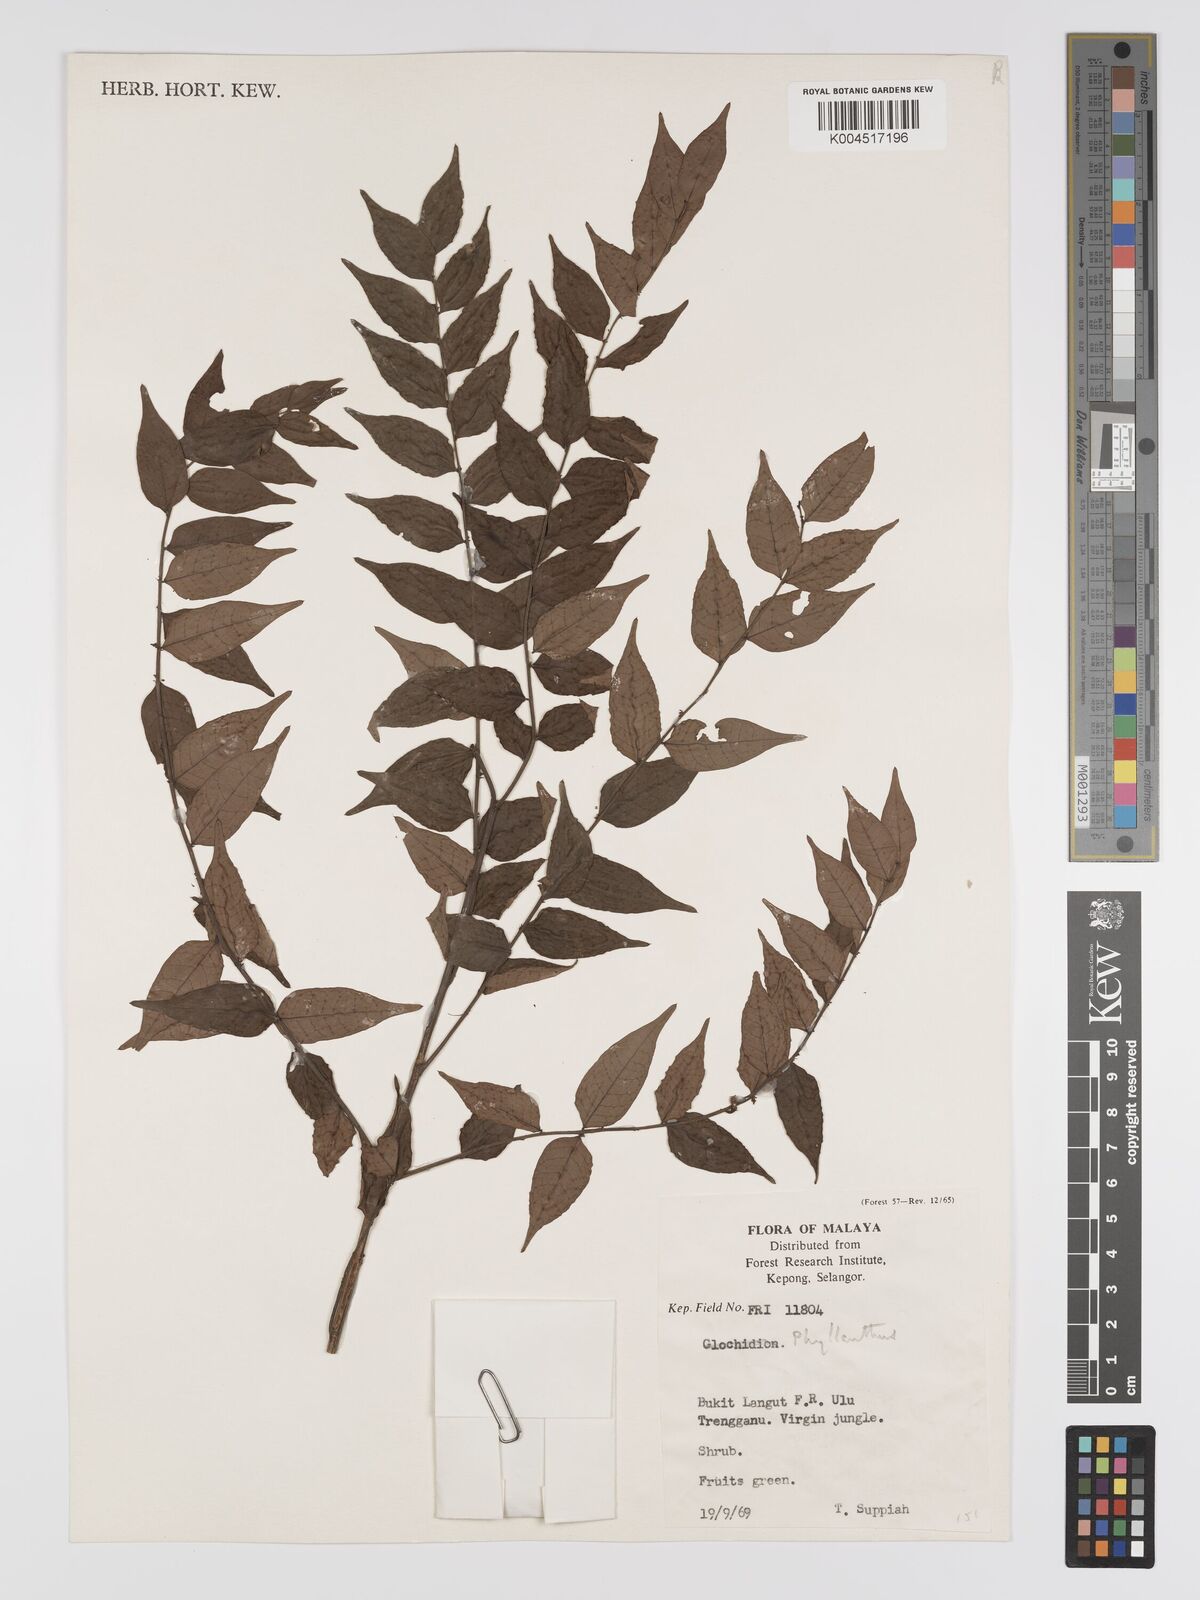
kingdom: Plantae
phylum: Tracheophyta
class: Magnoliopsida
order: Malpighiales
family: Phyllanthaceae
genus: Phyllanthus
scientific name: Phyllanthus
